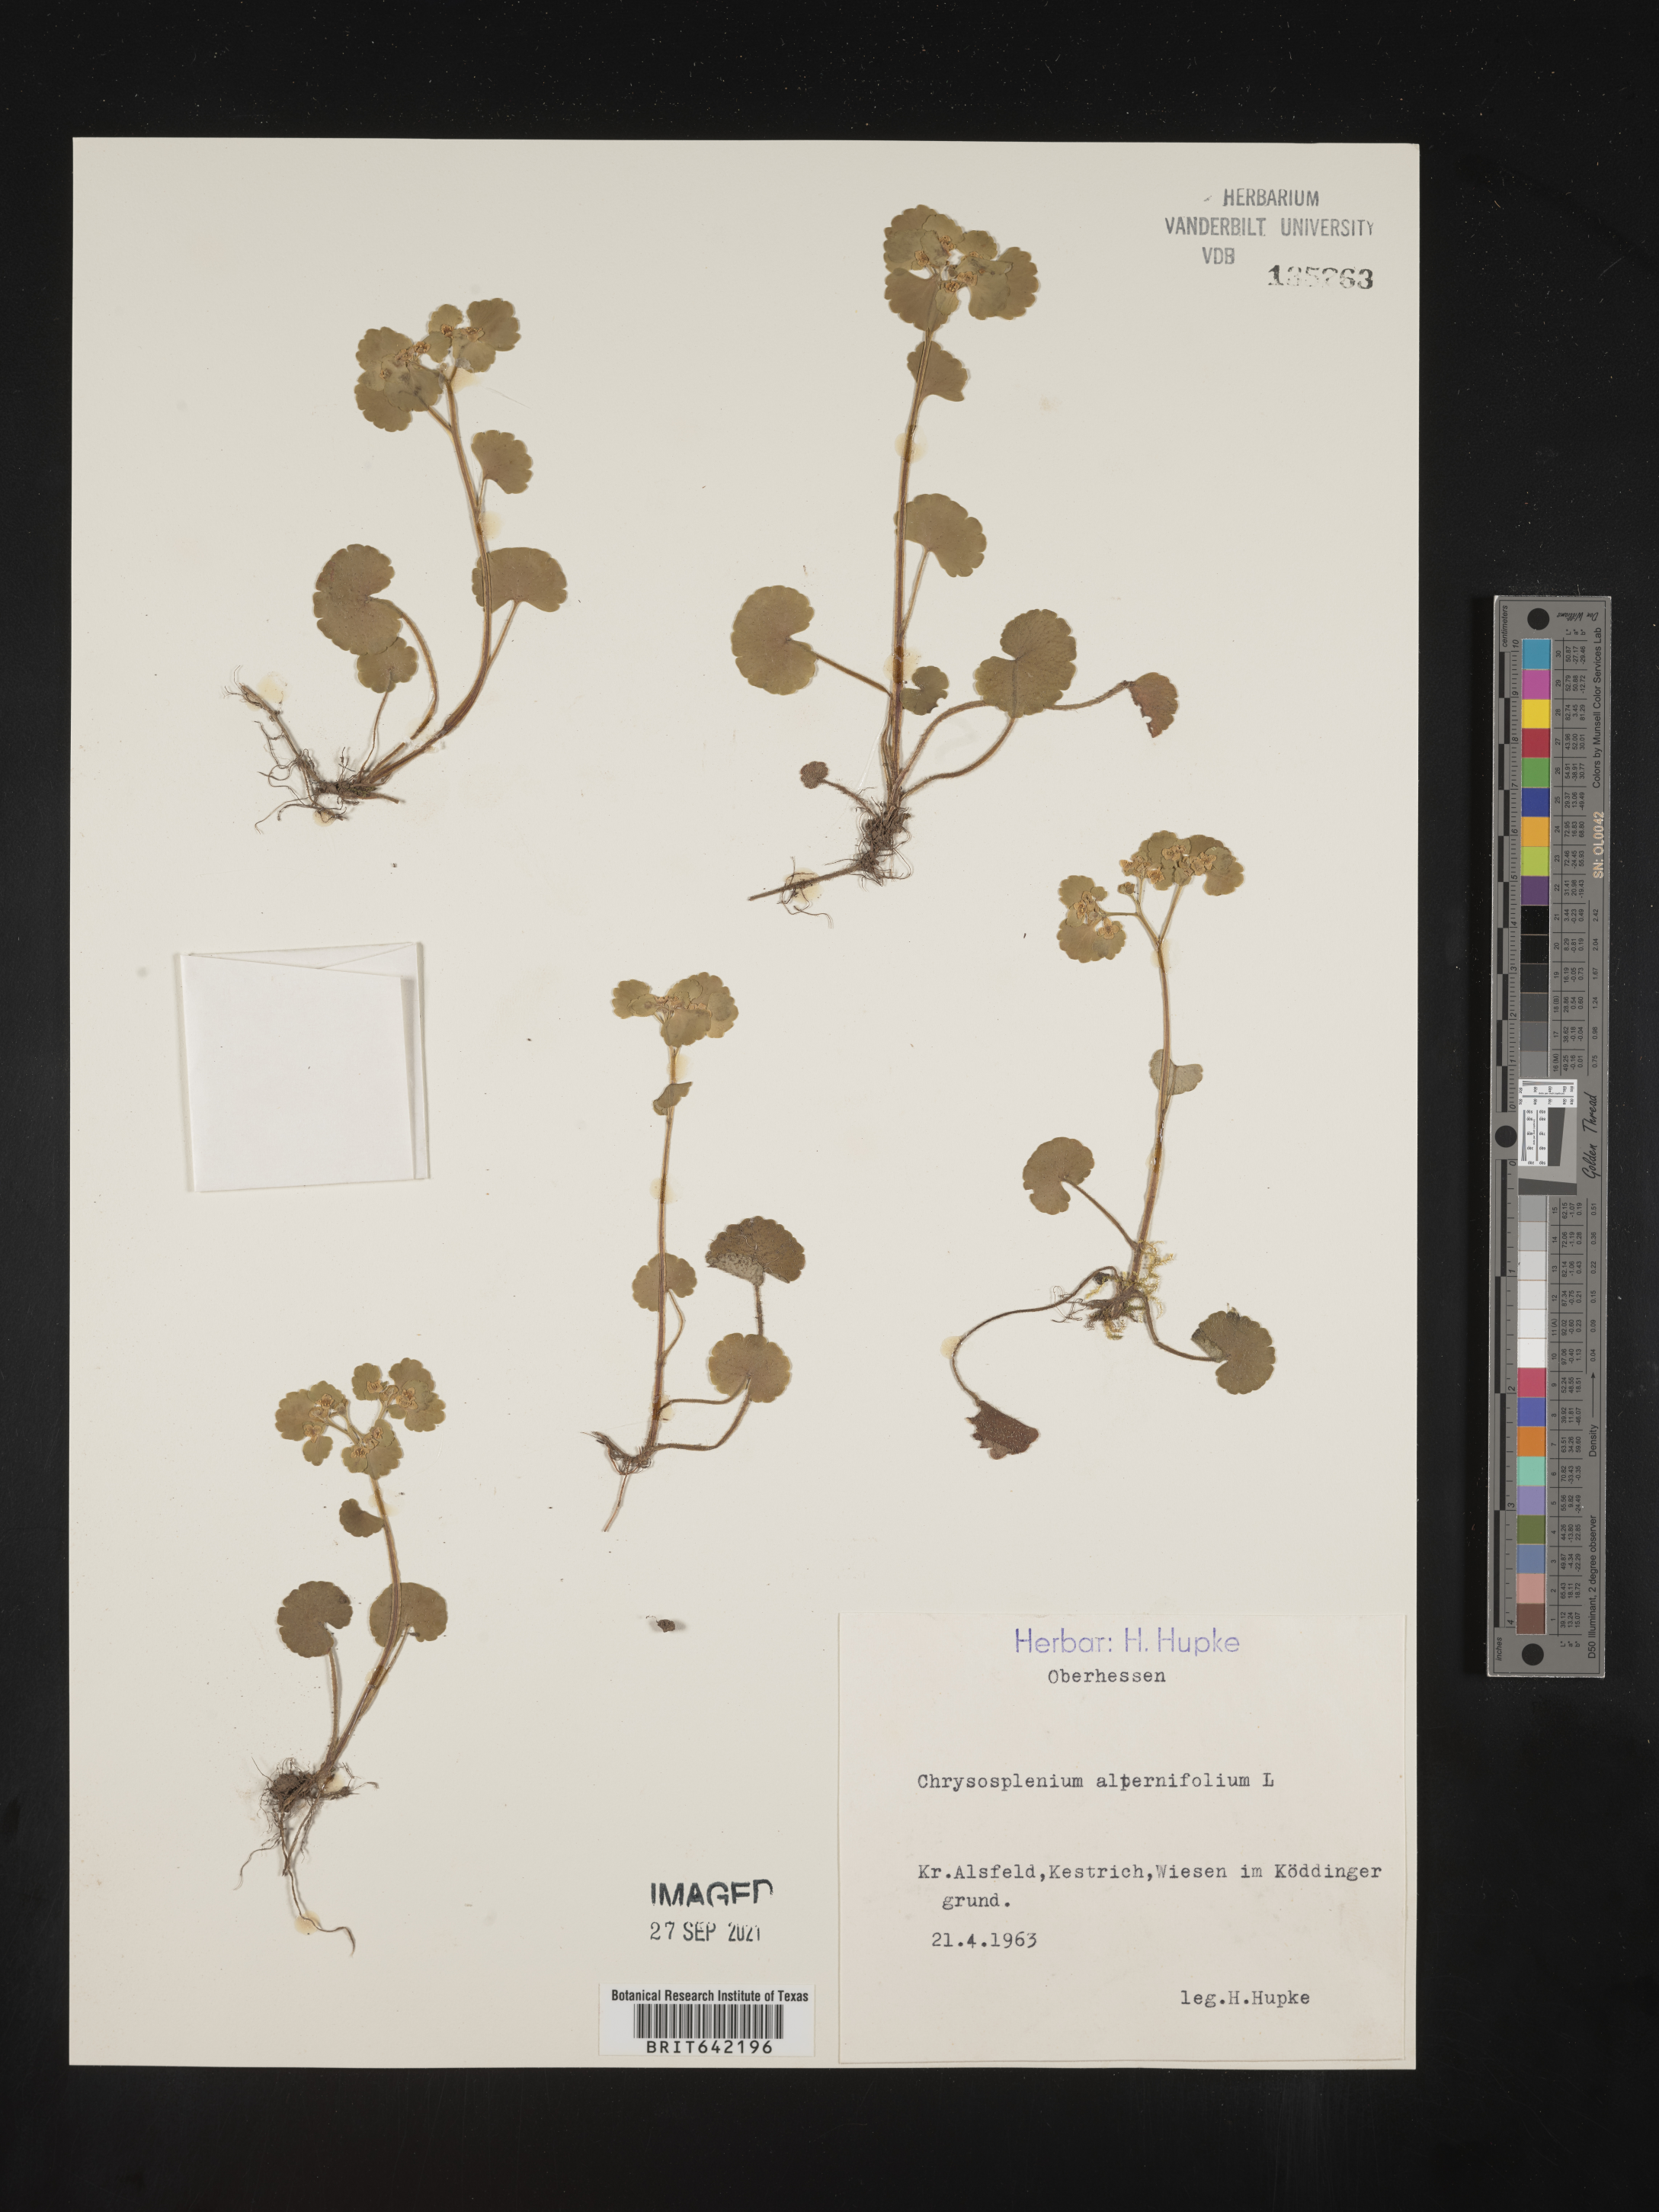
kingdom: Plantae
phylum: Tracheophyta
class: Magnoliopsida
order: Saxifragales
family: Saxifragaceae
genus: Chrysosplenium
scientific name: Chrysosplenium
